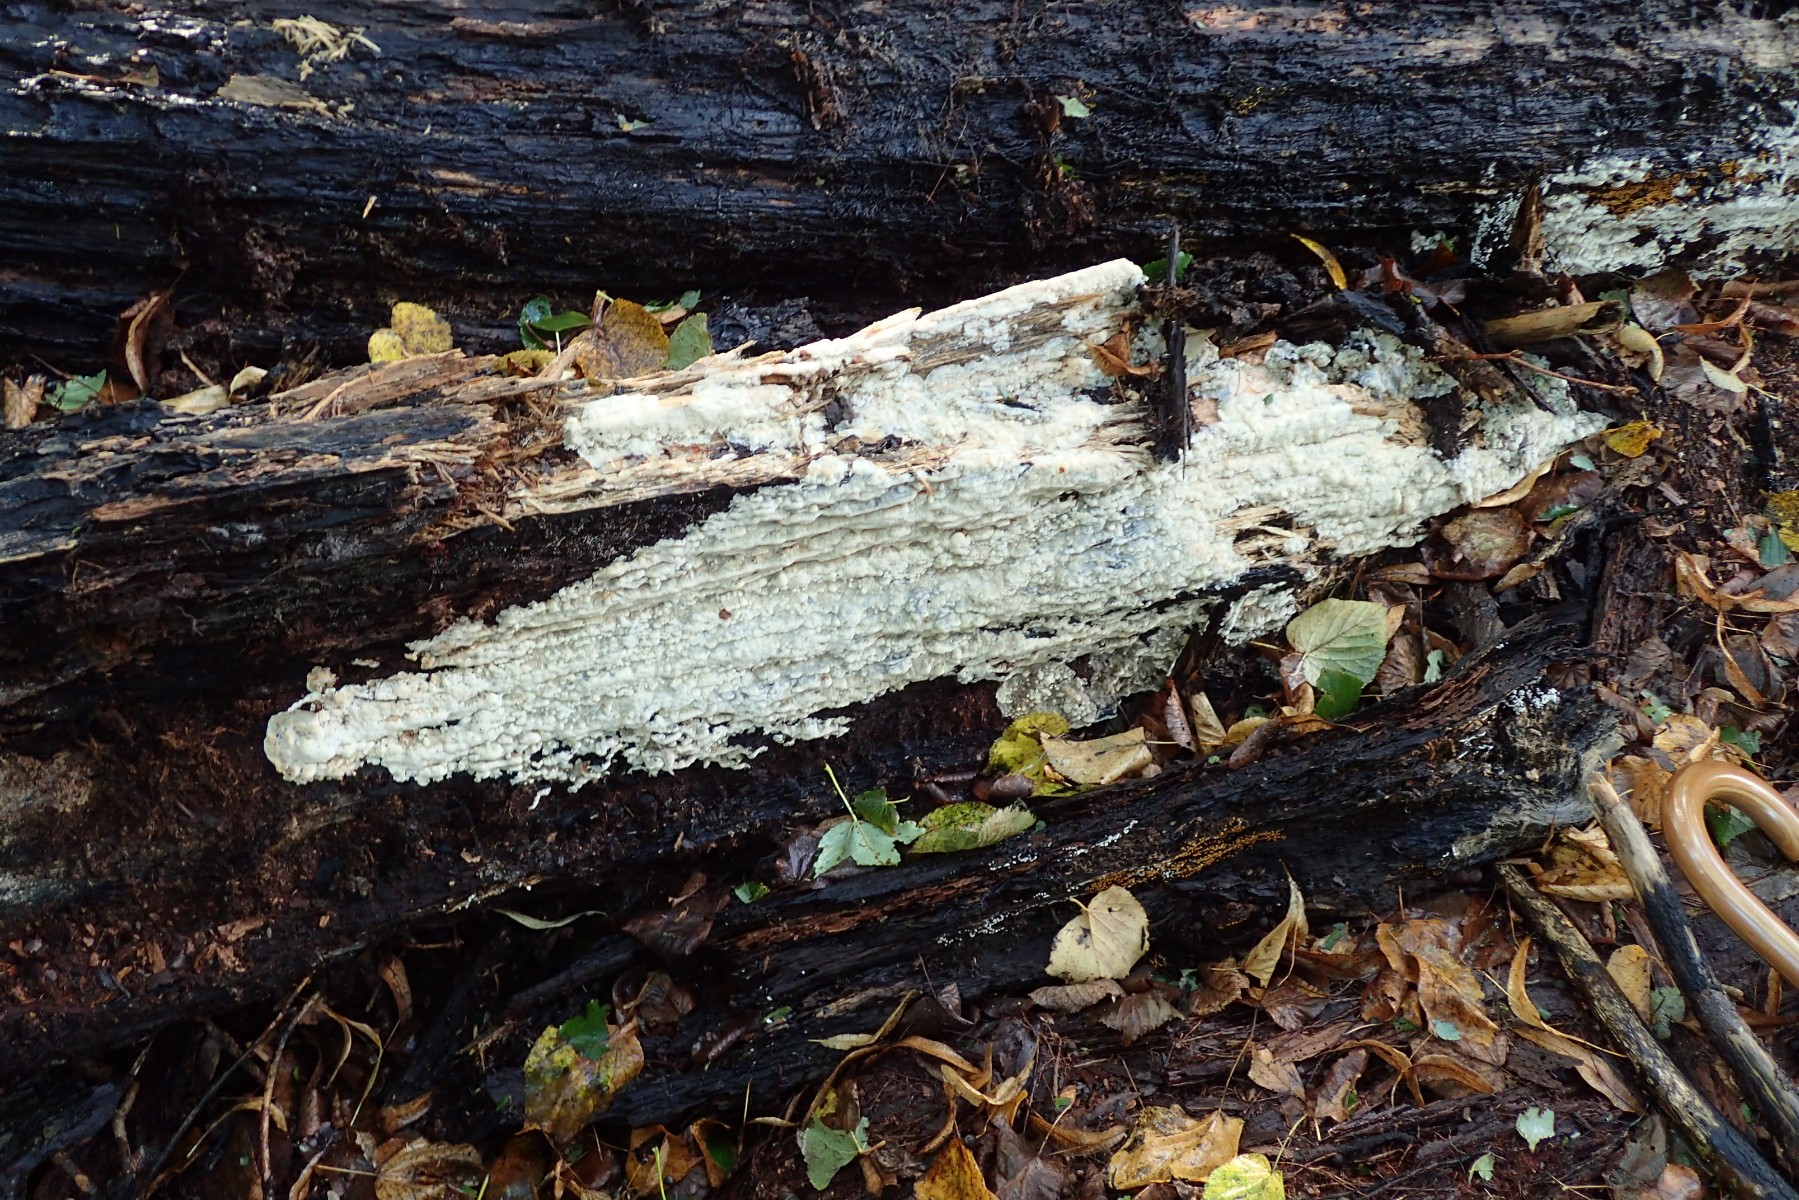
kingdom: Fungi
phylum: Basidiomycota
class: Agaricomycetes
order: Polyporales
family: Meruliaceae
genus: Physisporinus
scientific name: Physisporinus vitreus
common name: mastesvamp
